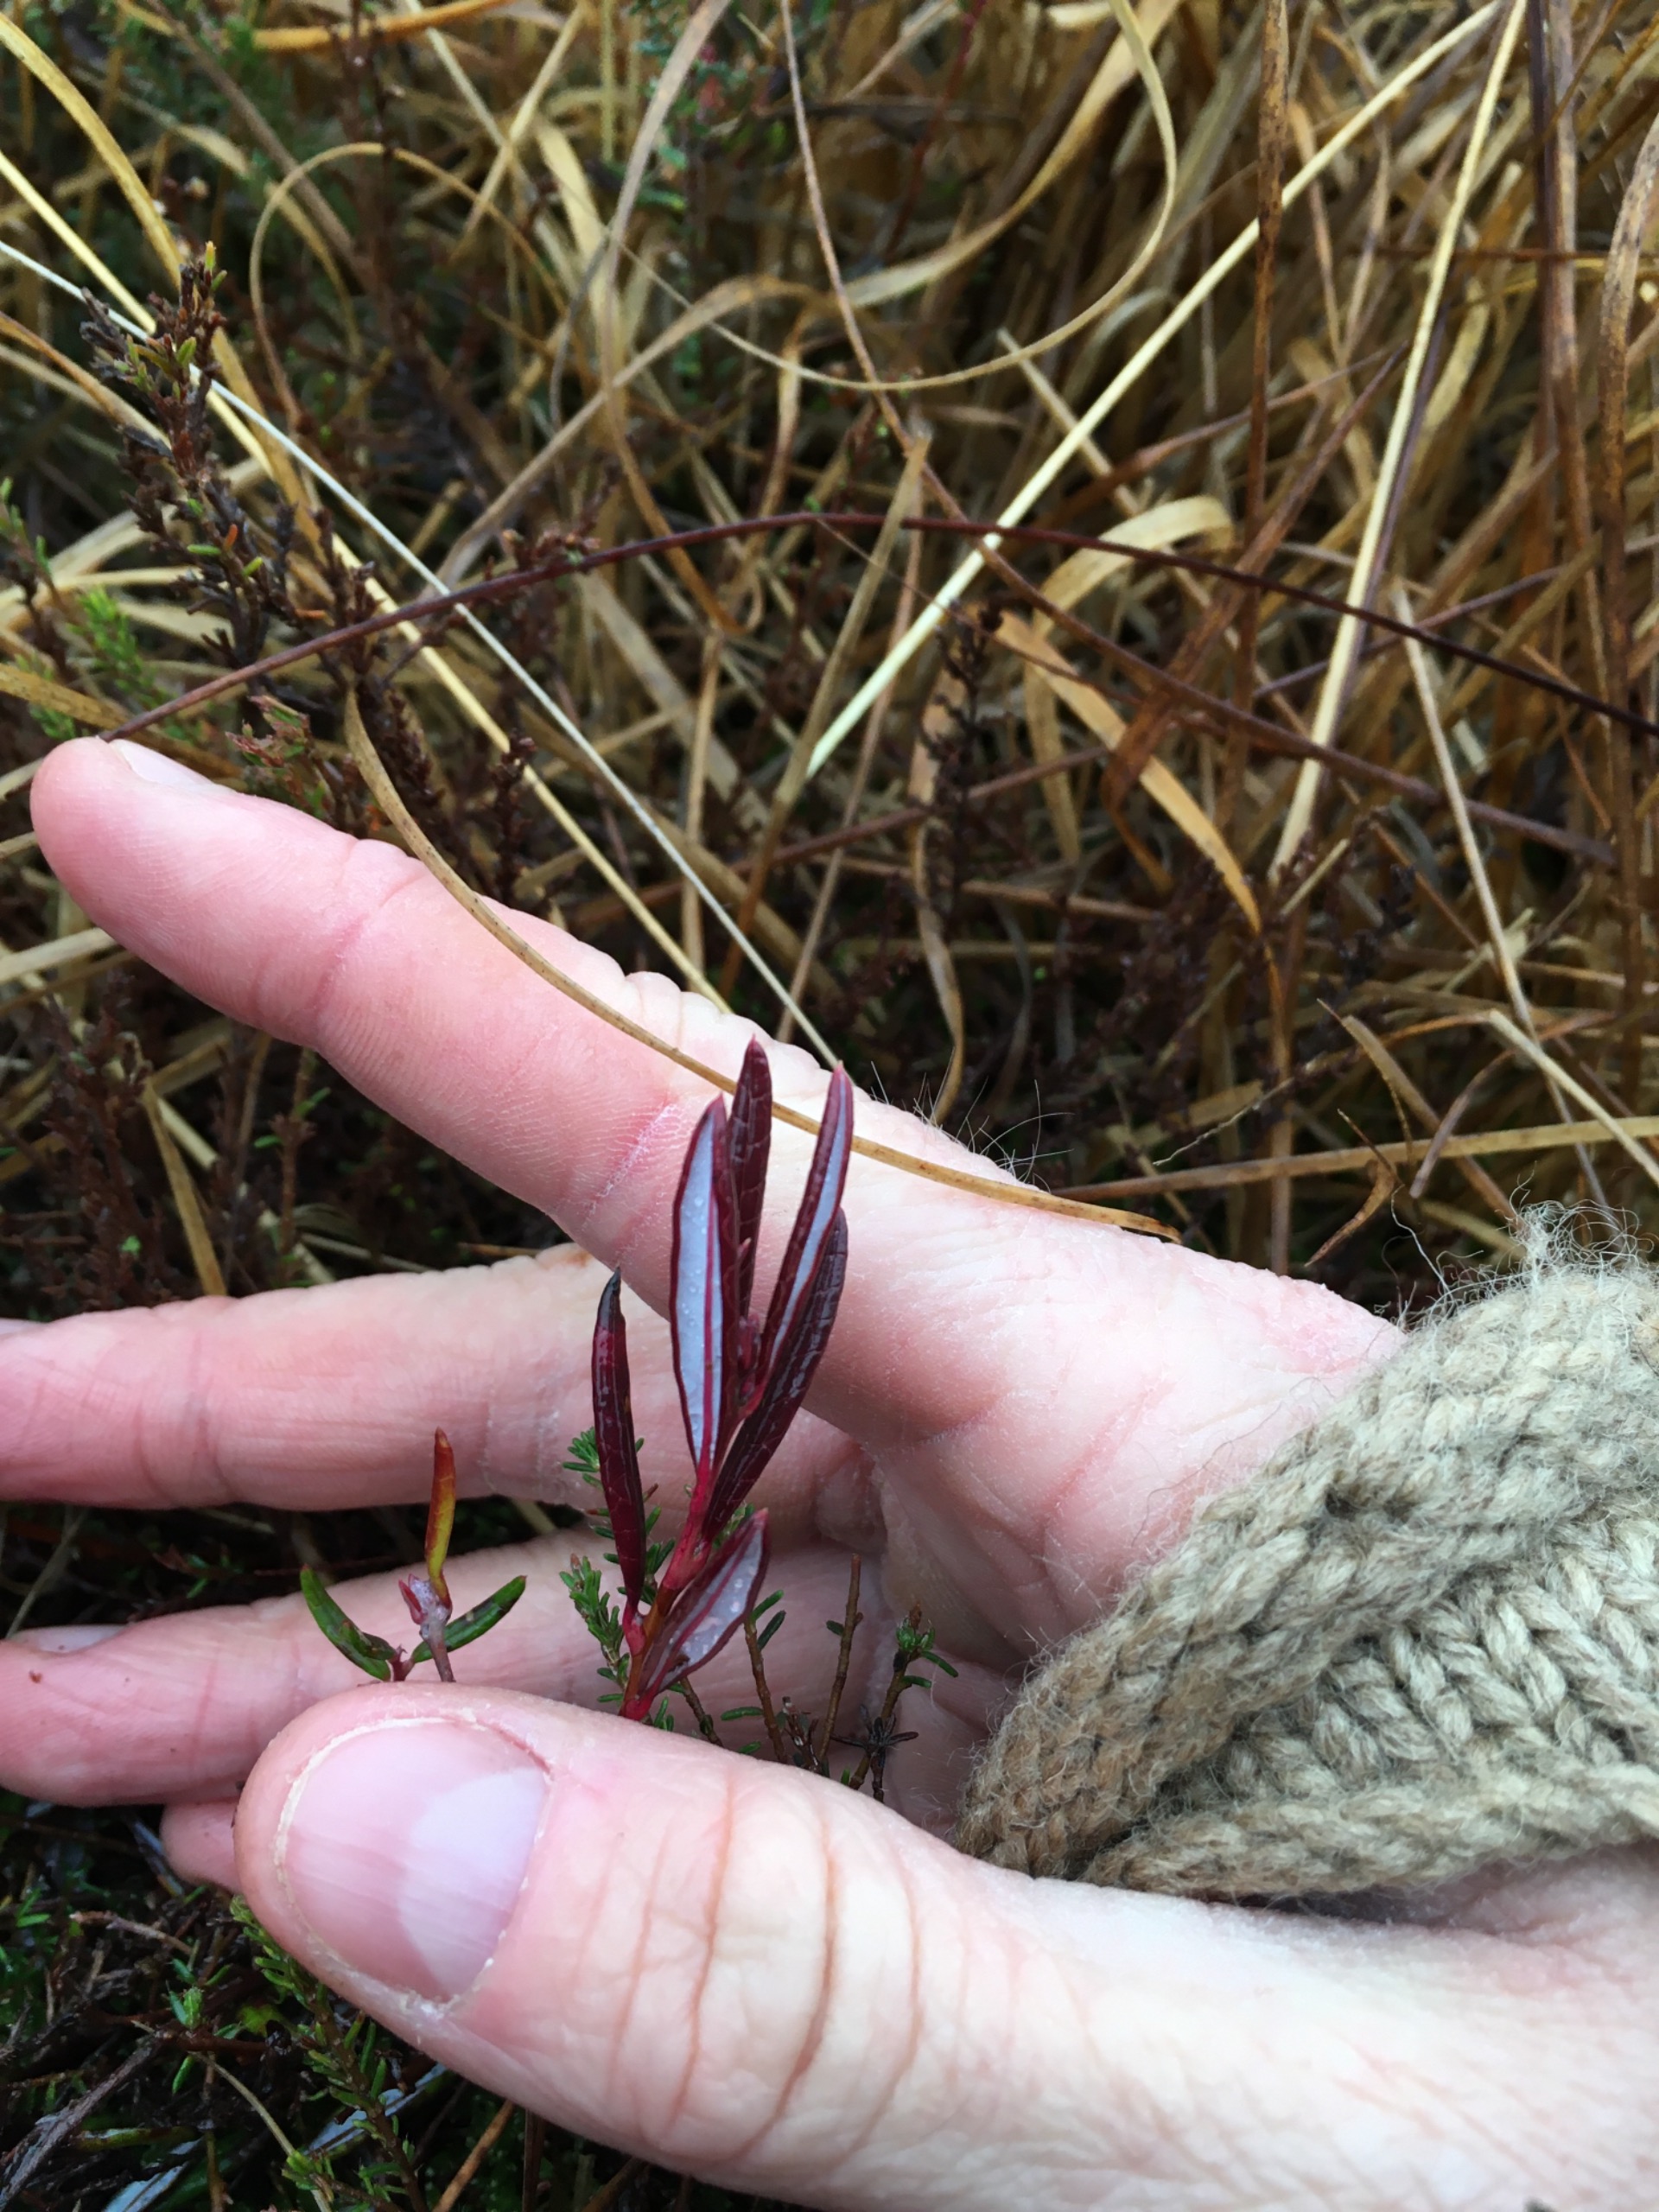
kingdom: Plantae
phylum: Tracheophyta
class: Magnoliopsida
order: Ericales
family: Ericaceae
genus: Andromeda
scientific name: Andromeda polifolia
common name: Rosmarinlyng
